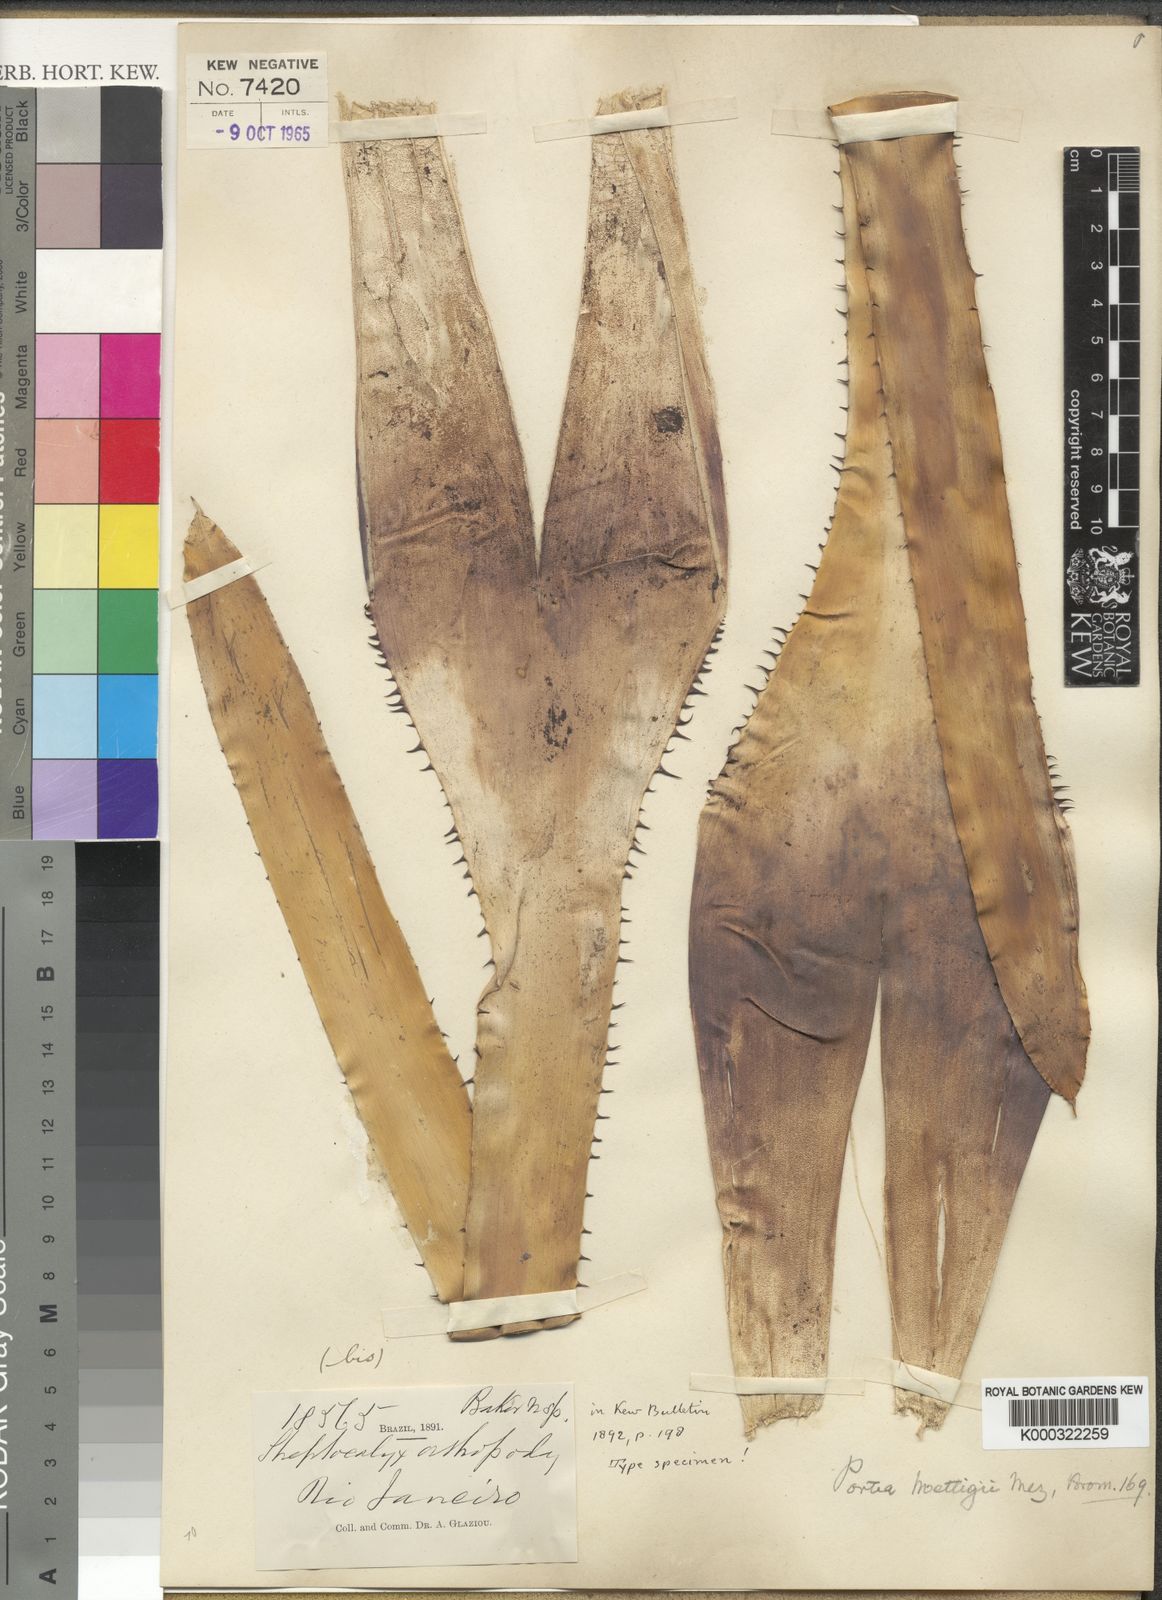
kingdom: Plantae
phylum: Tracheophyta
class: Liliopsida
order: Poales
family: Bromeliaceae
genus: Portea
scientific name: Portea petropolitana
